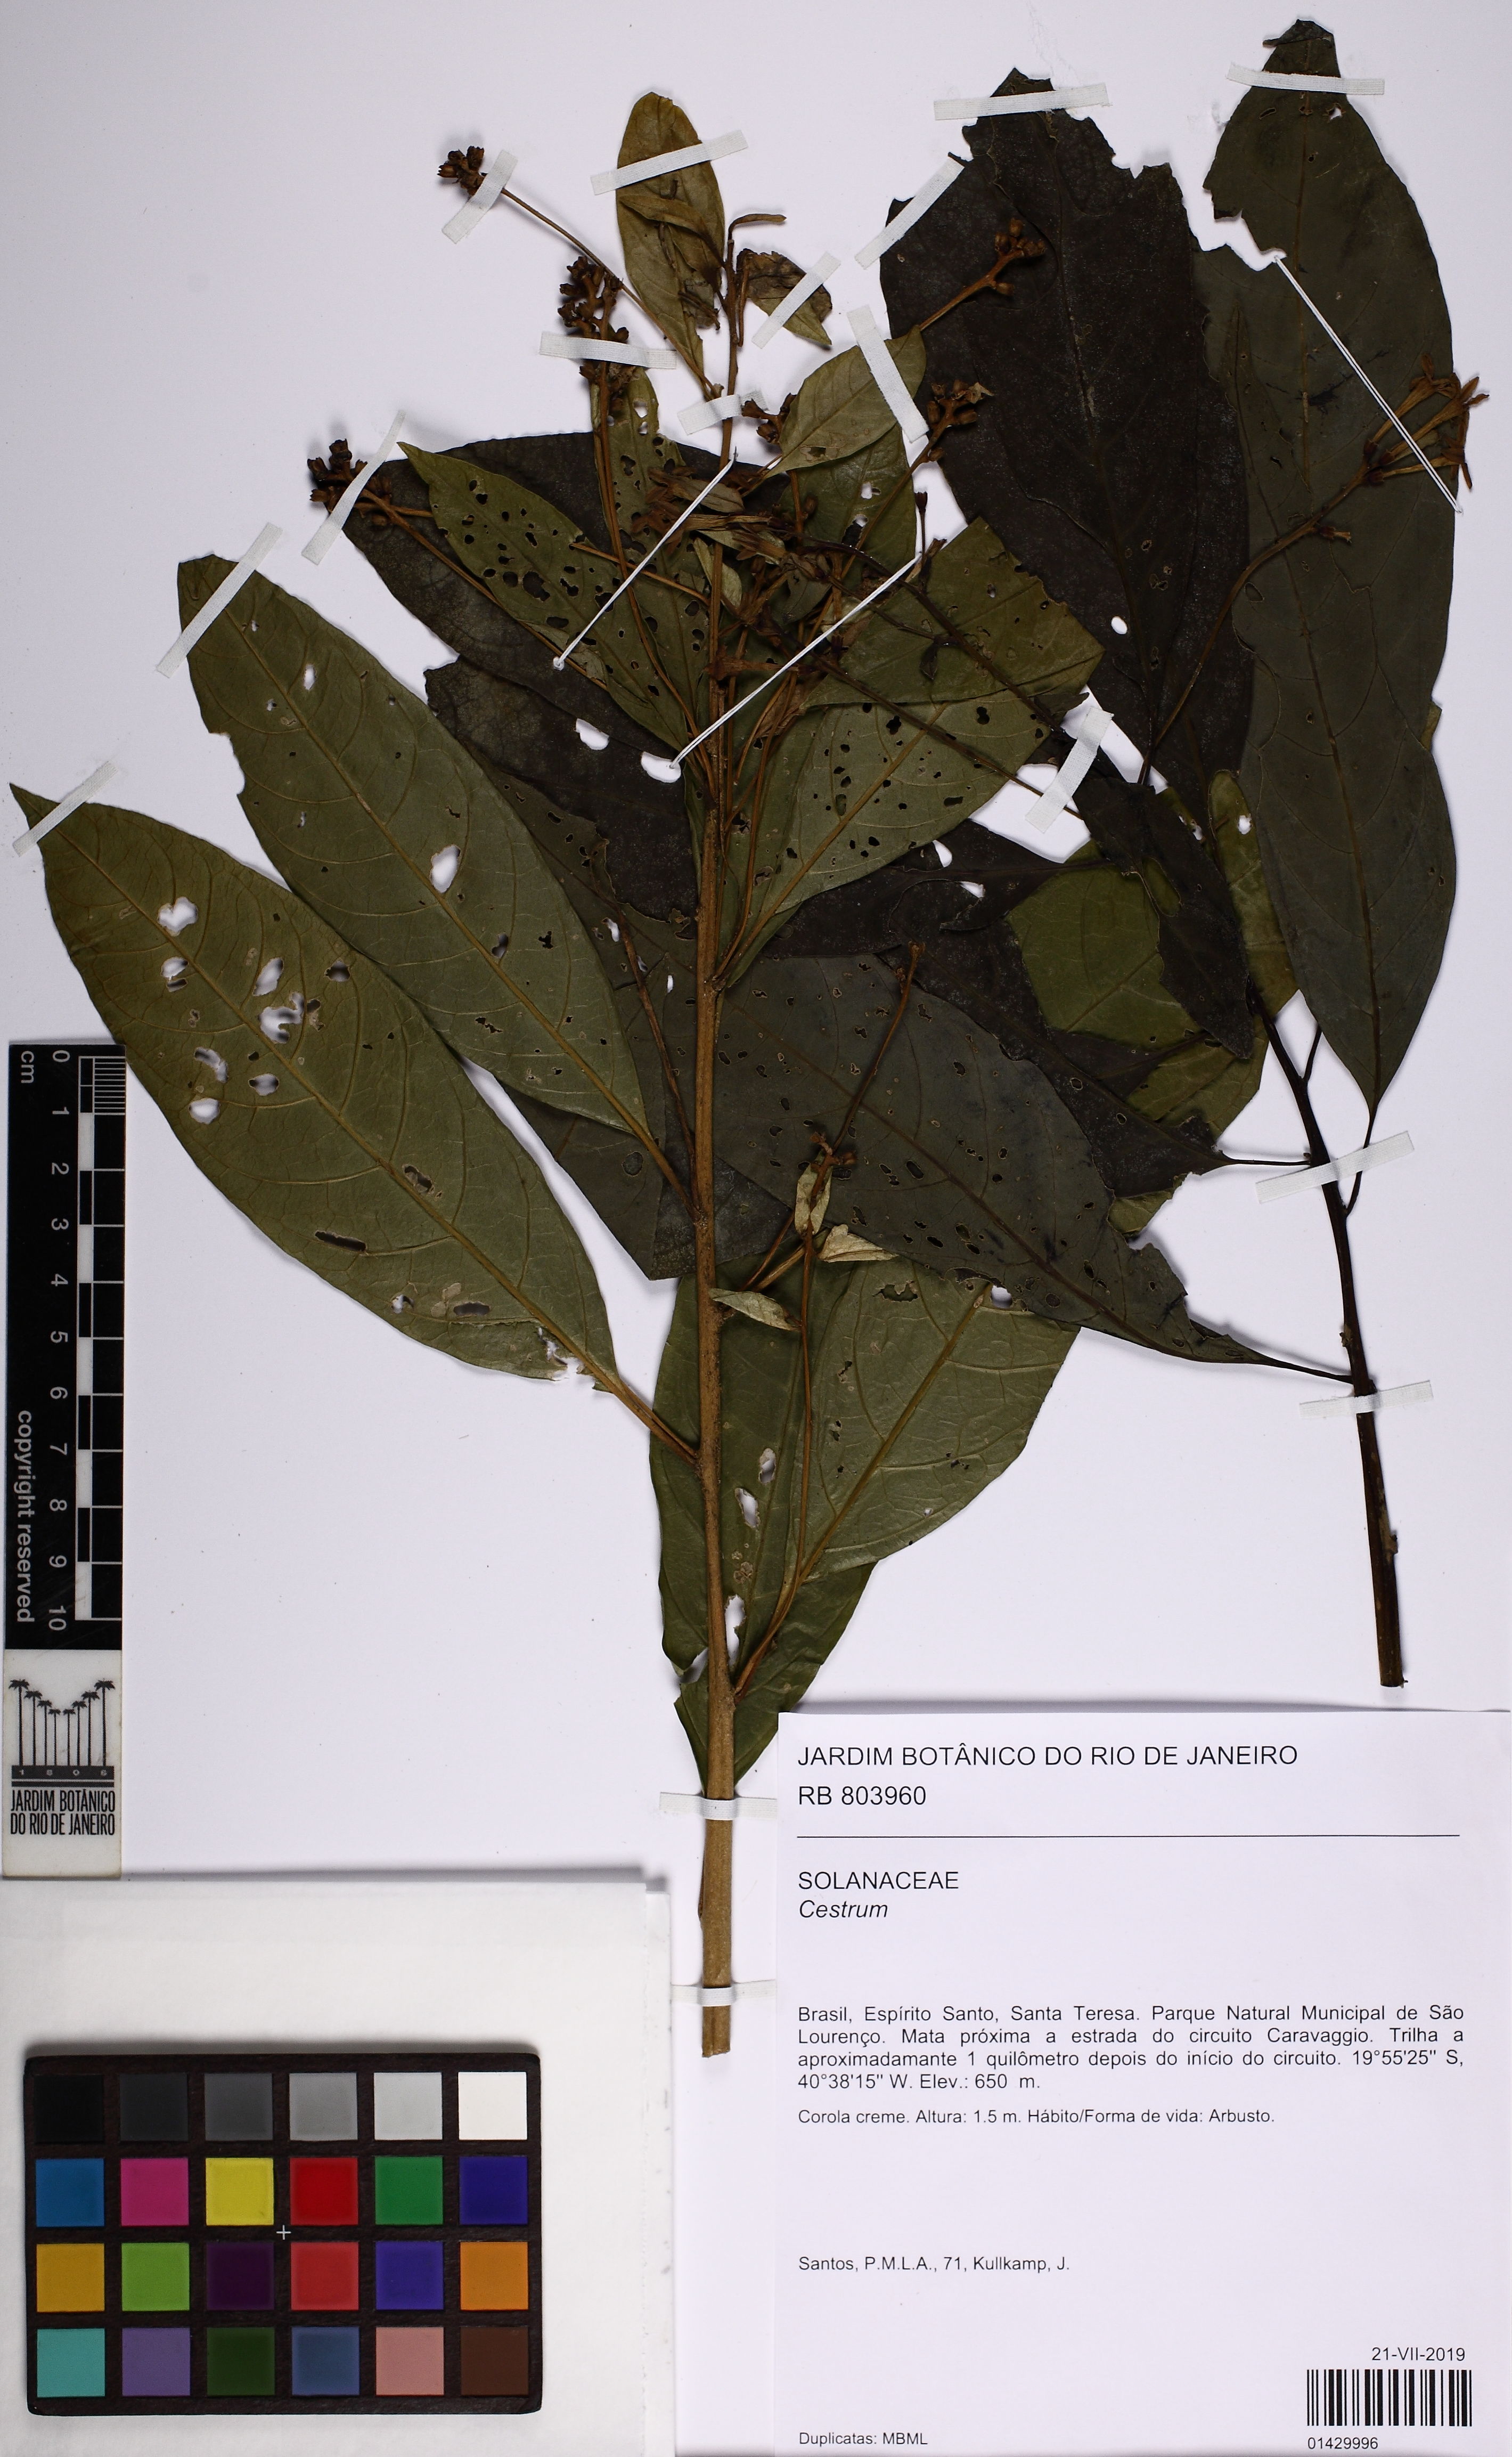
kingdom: Plantae
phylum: Tracheophyta
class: Magnoliopsida
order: Solanales
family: Solanaceae
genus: Cestrum
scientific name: Cestrum
